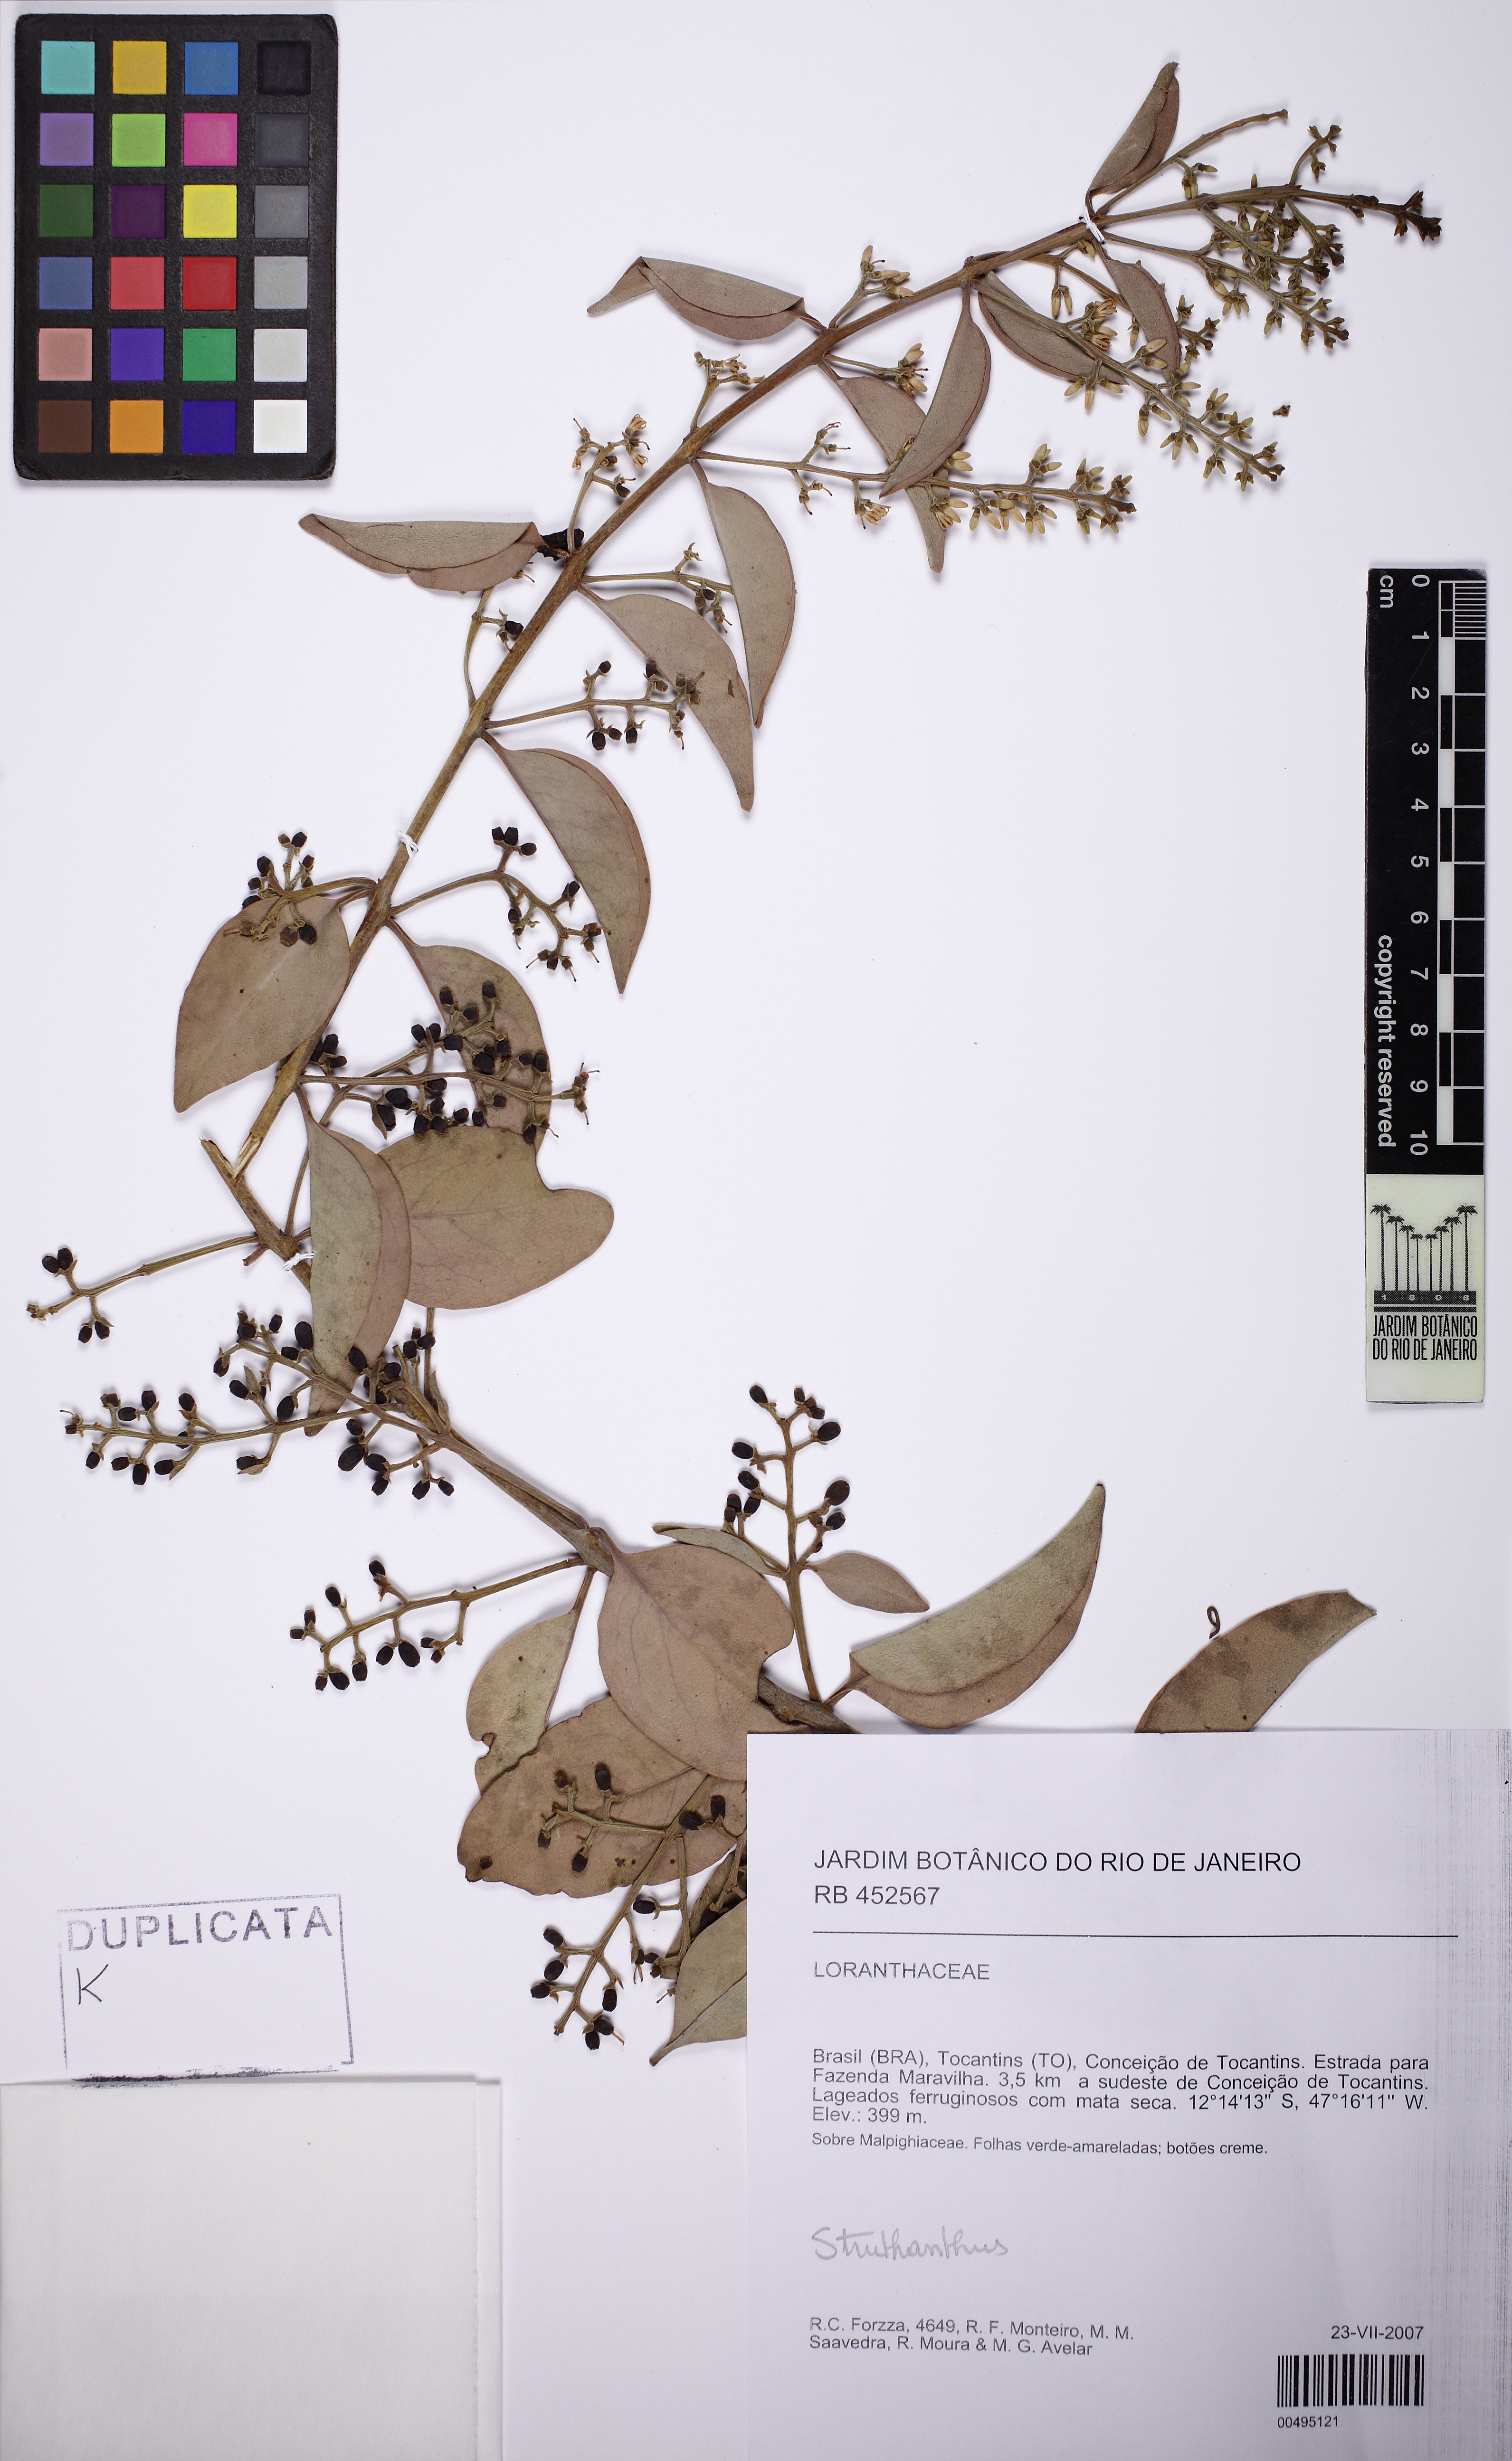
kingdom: Plantae
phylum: Tracheophyta
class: Magnoliopsida
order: Santalales
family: Loranthaceae
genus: Struthanthus
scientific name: Struthanthus
